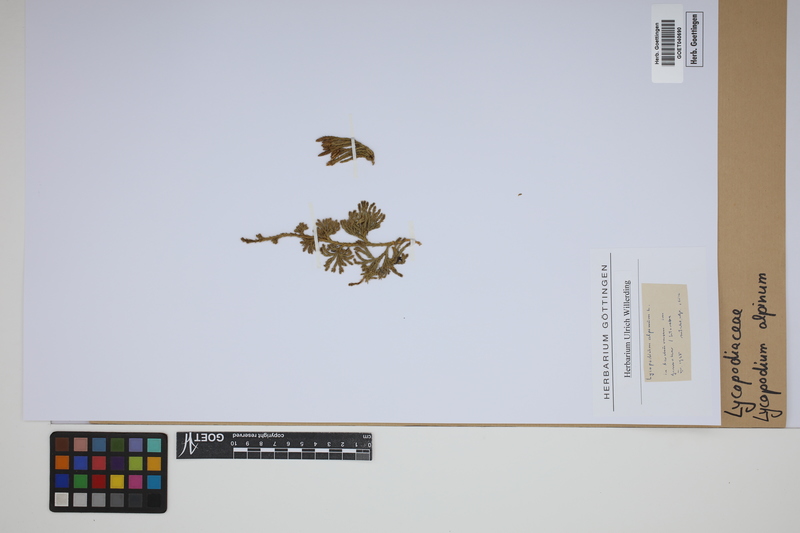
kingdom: Plantae
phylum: Tracheophyta
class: Lycopodiopsida
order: Lycopodiales
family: Lycopodiaceae
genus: Diphasiastrum
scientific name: Diphasiastrum alpinum
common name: Alpine clubmoss
